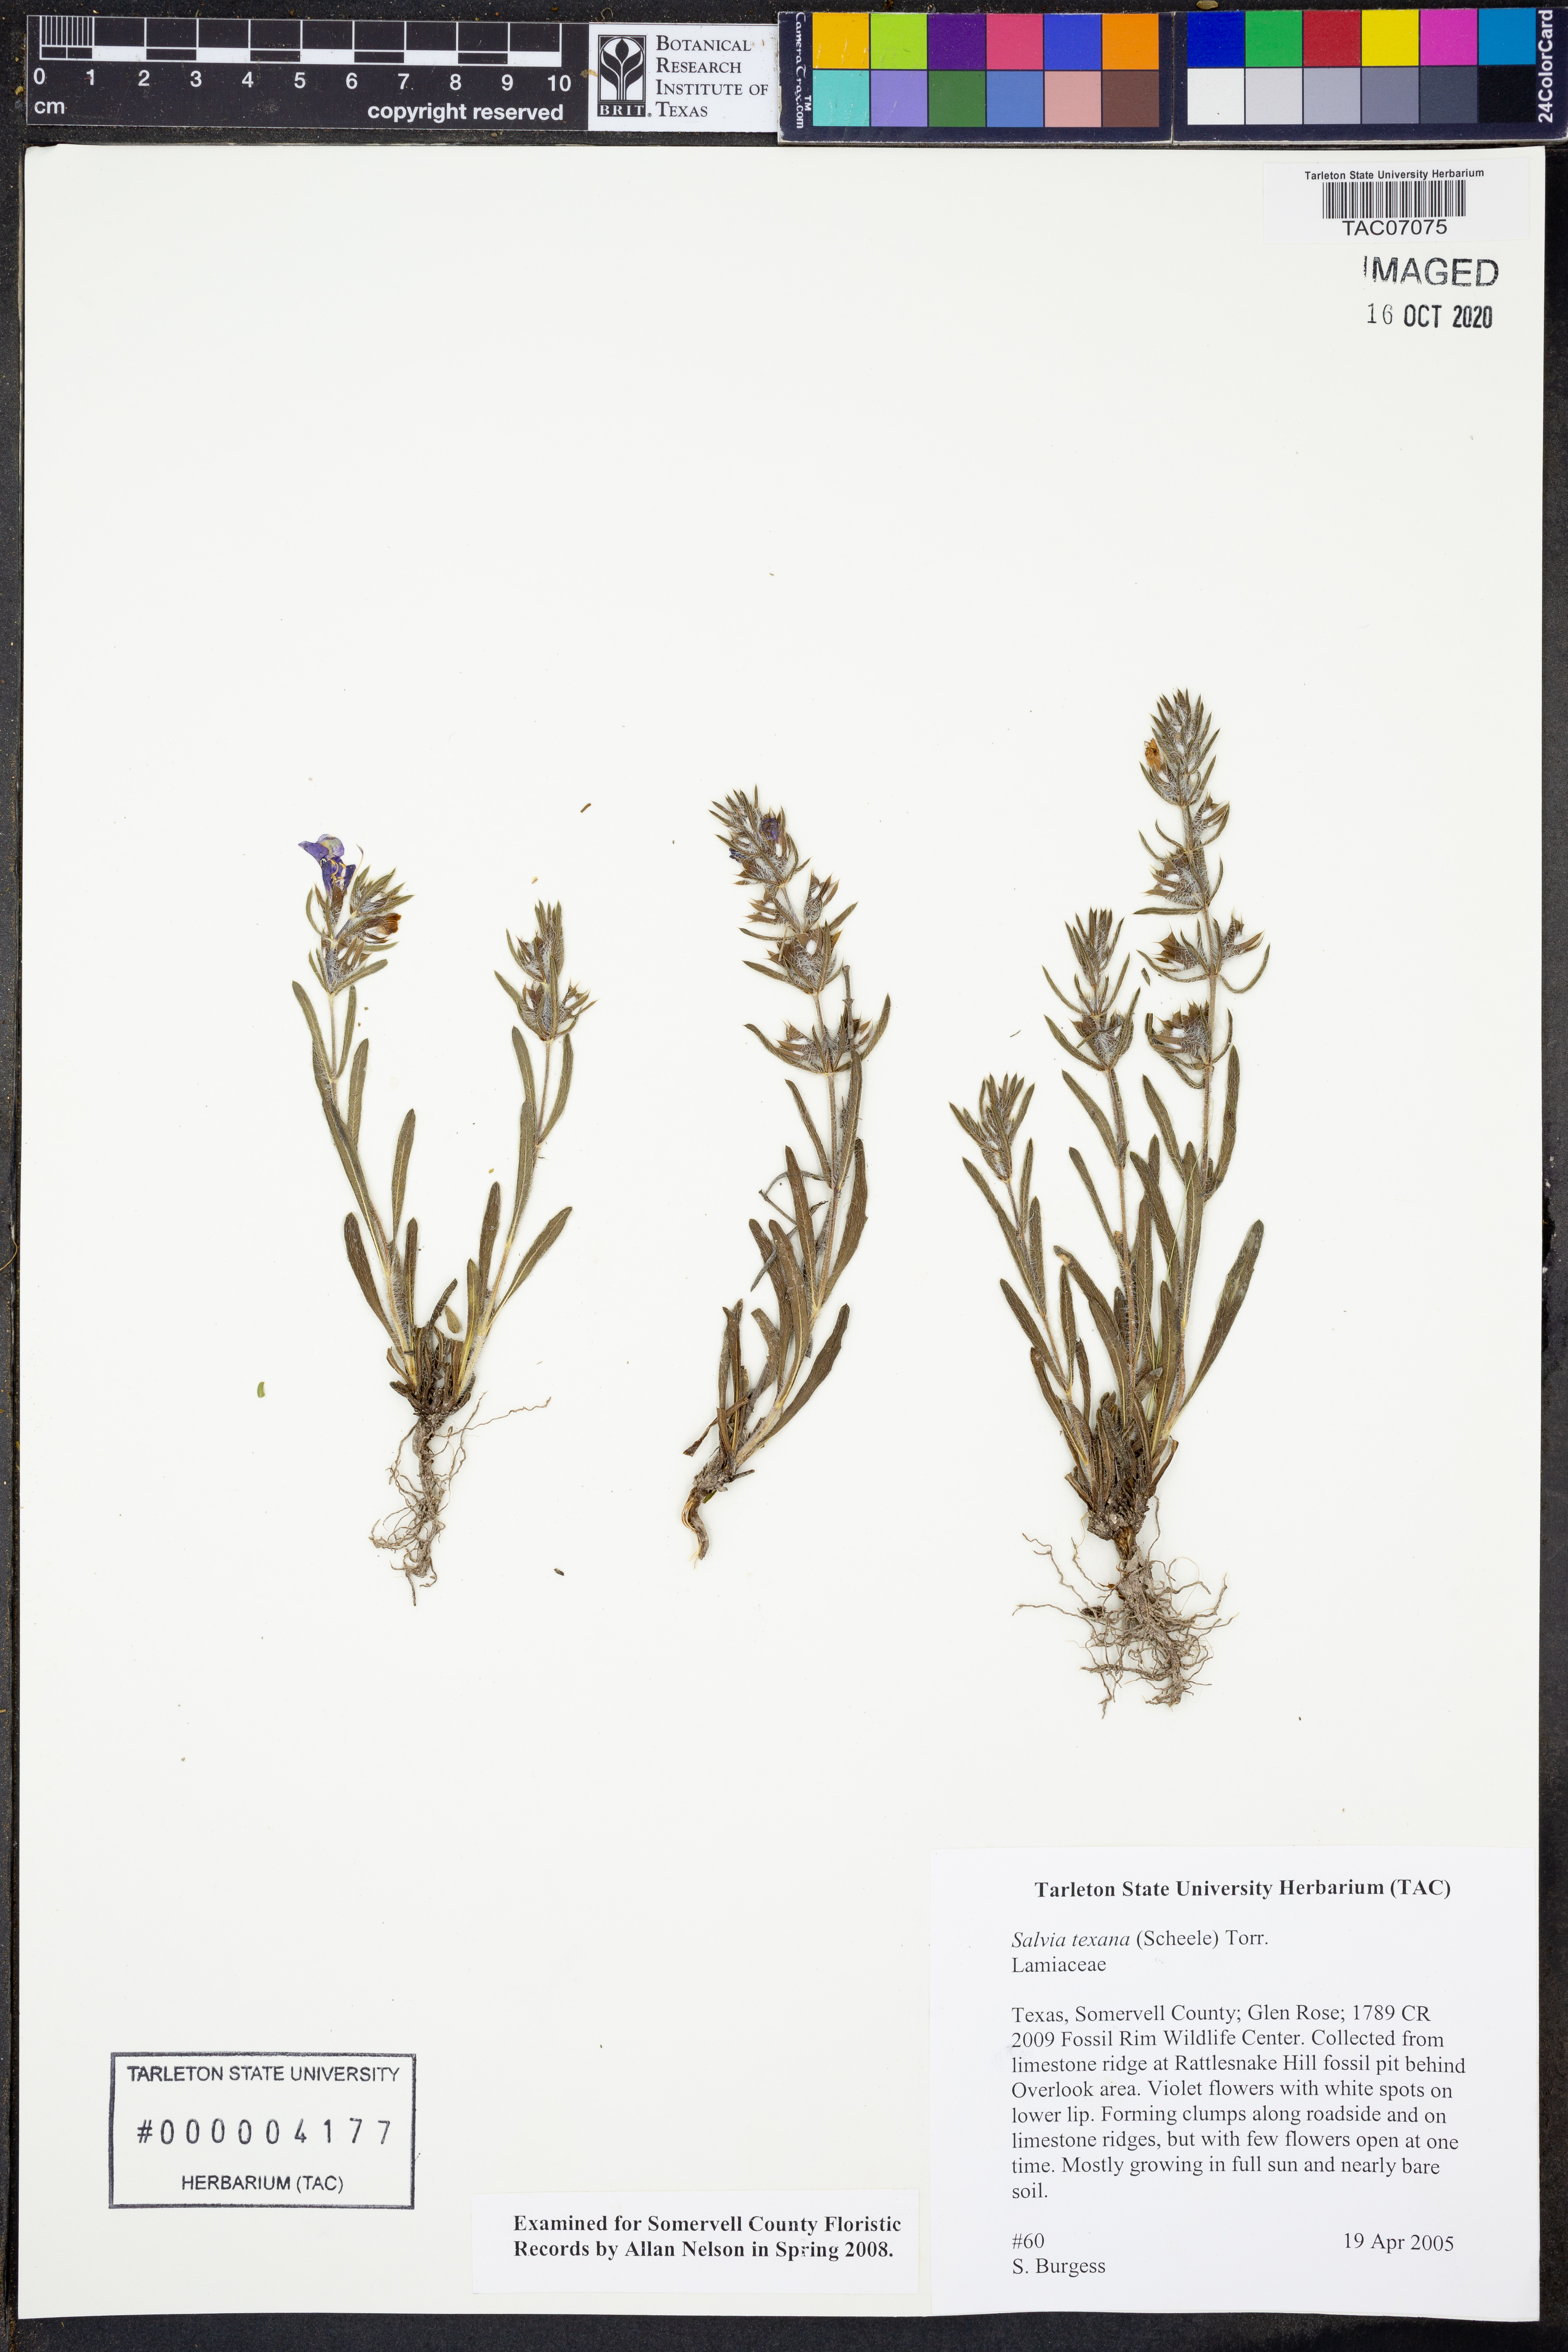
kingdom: Plantae
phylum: Tracheophyta
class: Magnoliopsida
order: Lamiales
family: Lamiaceae
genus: Salvia
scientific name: Salvia texana
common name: Texas sage
